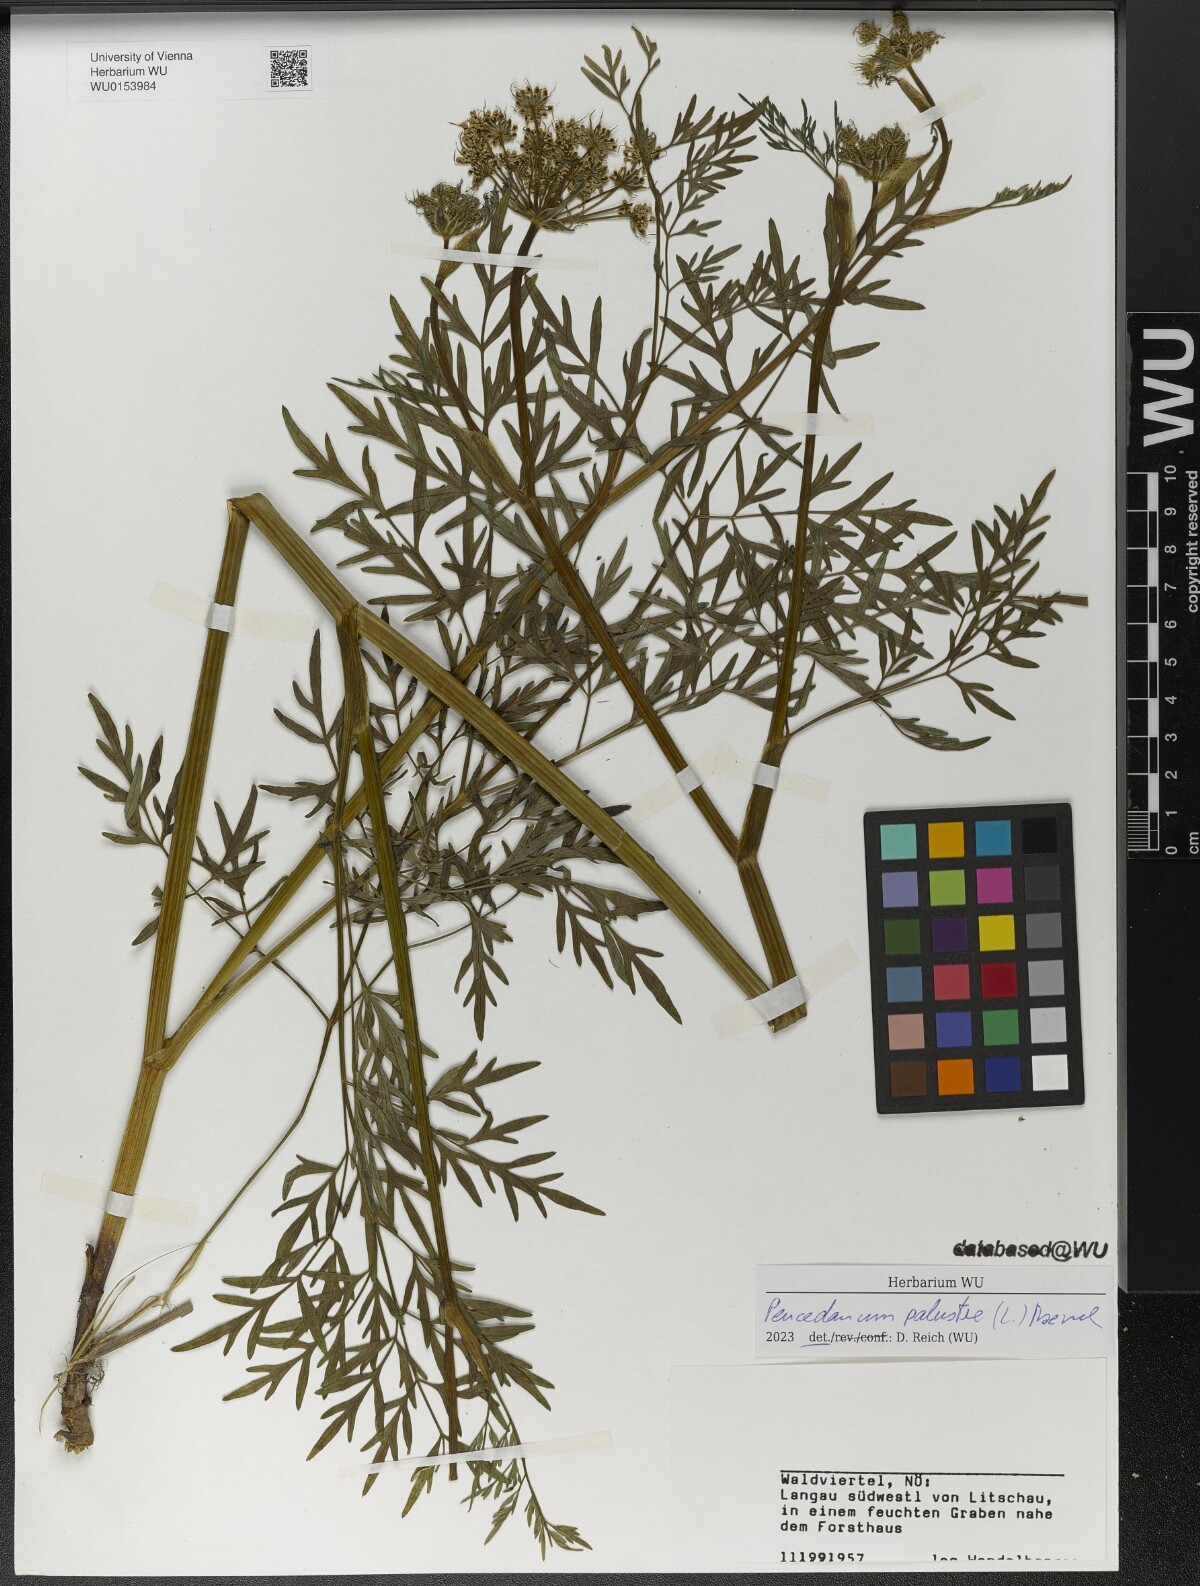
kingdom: Plantae
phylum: Tracheophyta
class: Magnoliopsida
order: Apiales
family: Apiaceae
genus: Thysselinum
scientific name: Thysselinum palustre
